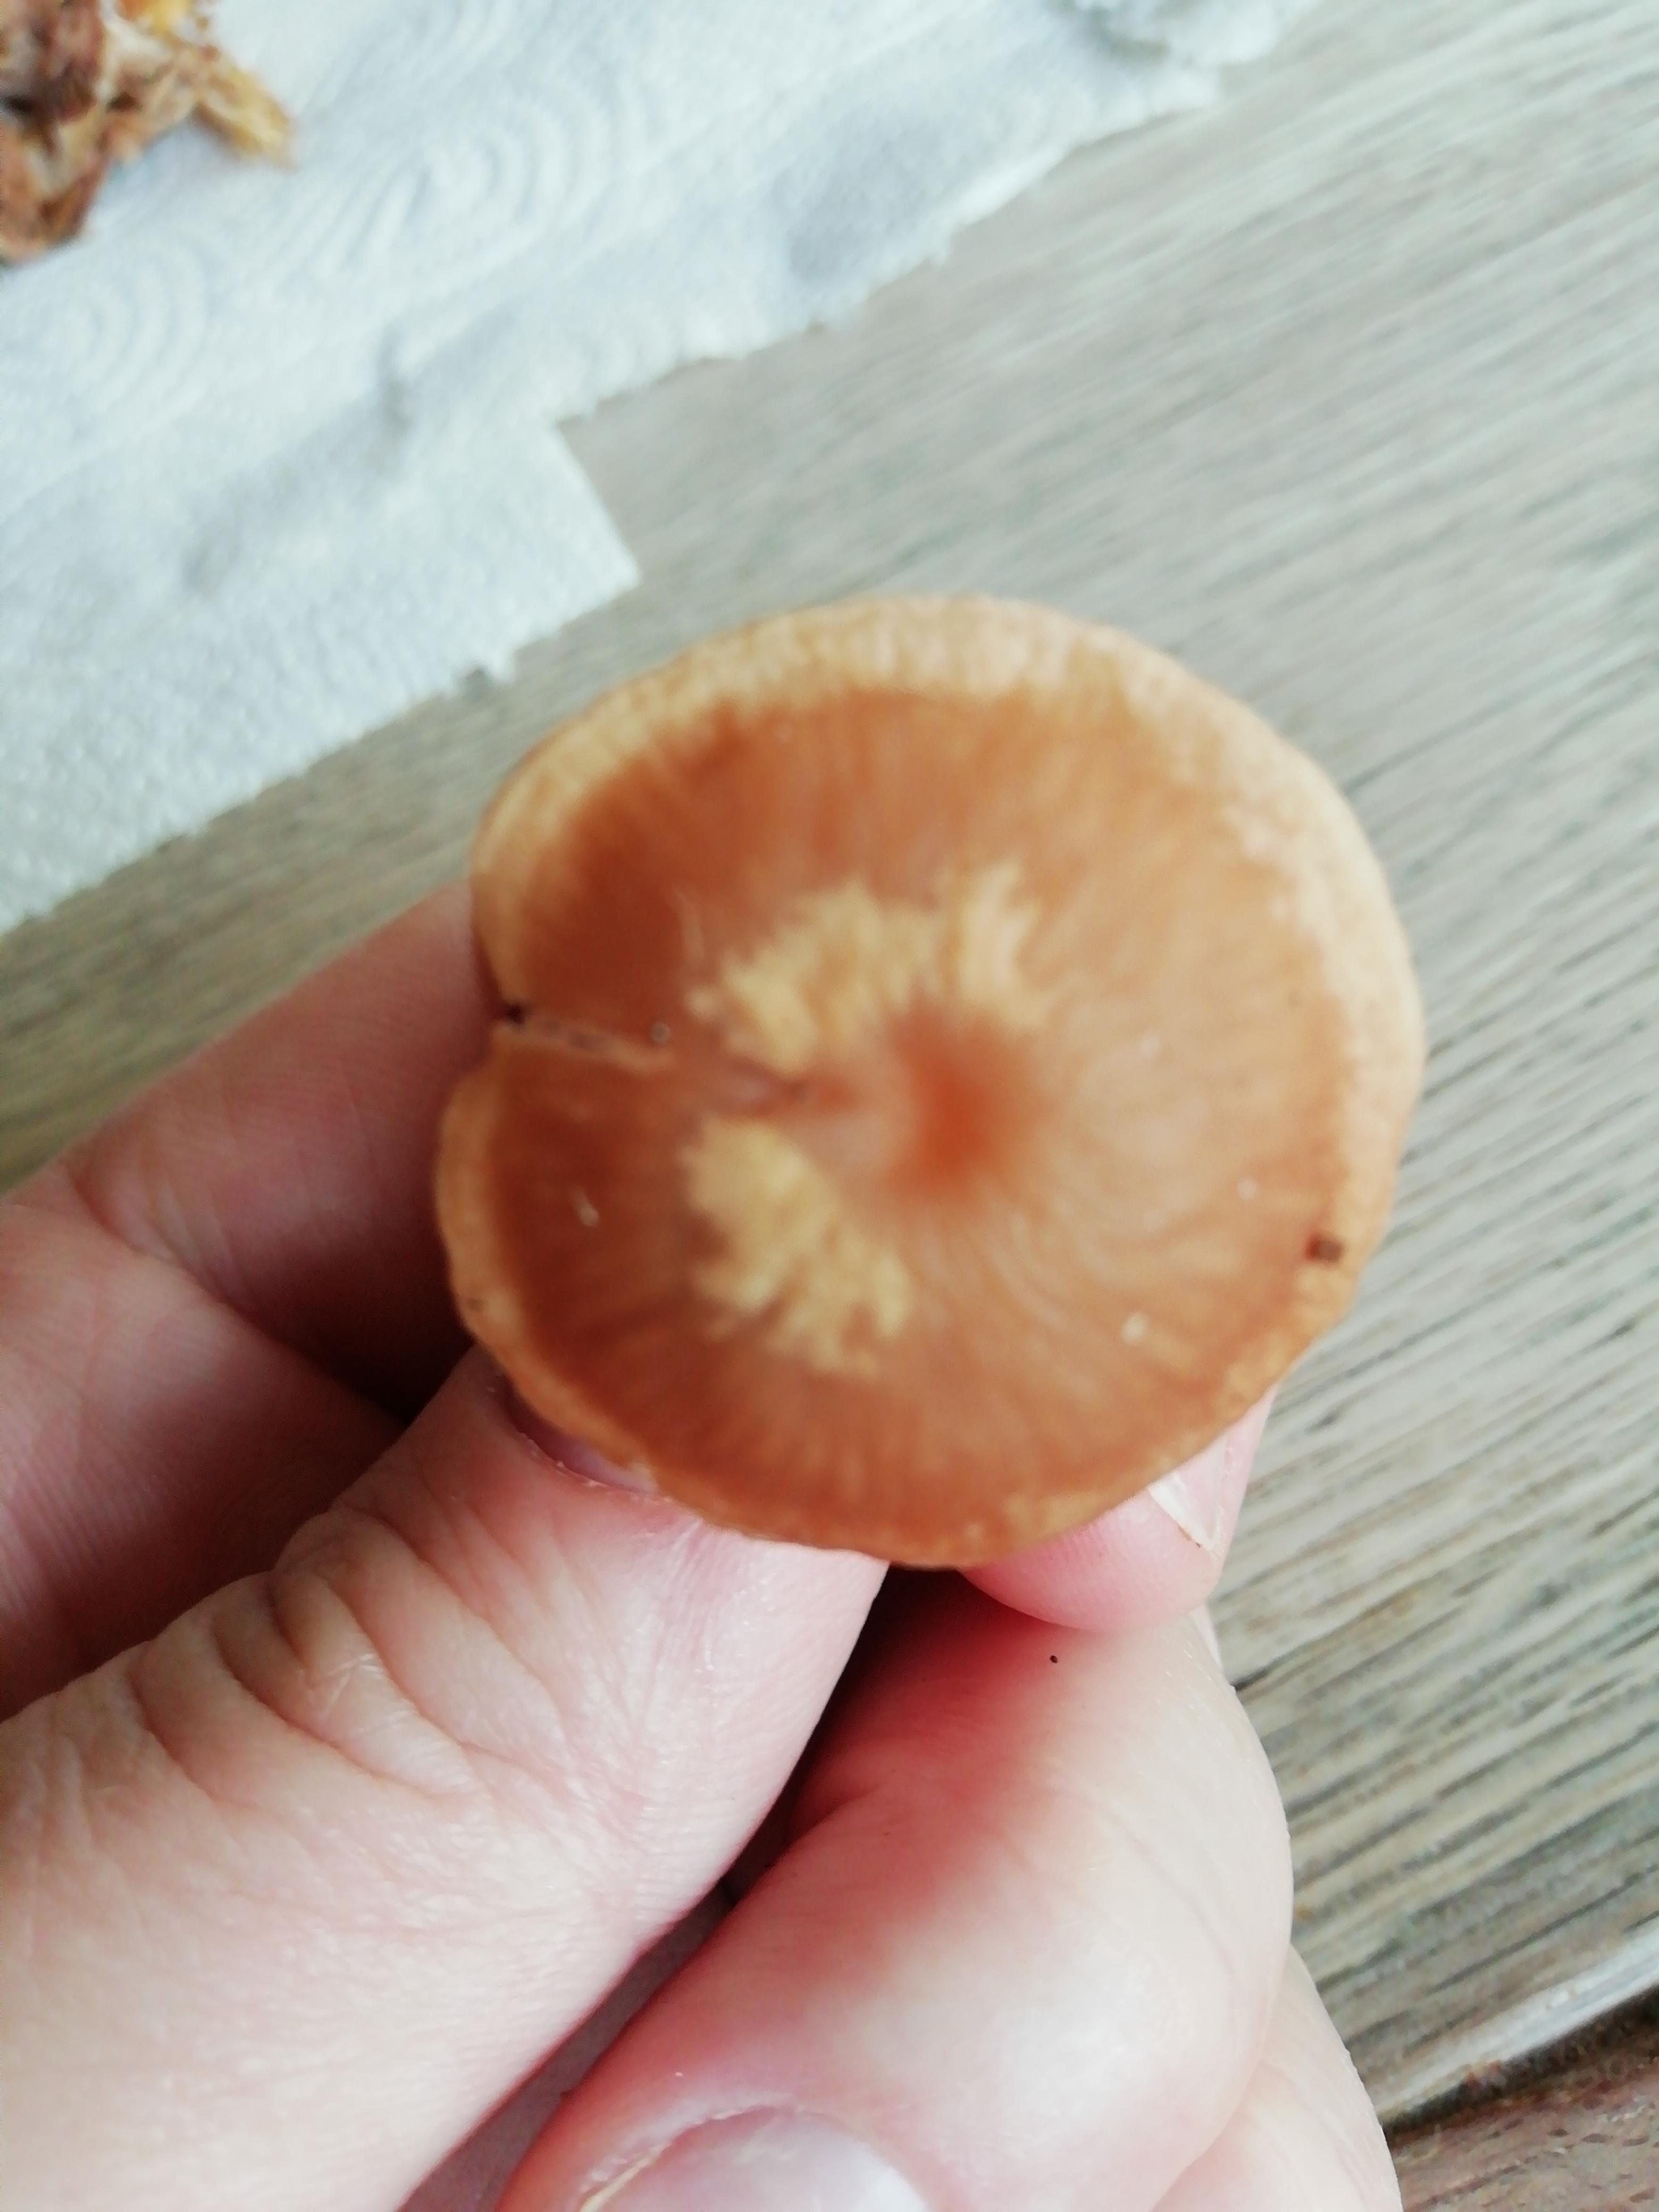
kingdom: Fungi
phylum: Basidiomycota
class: Agaricomycetes
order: Agaricales
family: Tubariaceae
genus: Tubaria
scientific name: Tubaria furfuracea
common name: kliddet fnughat
